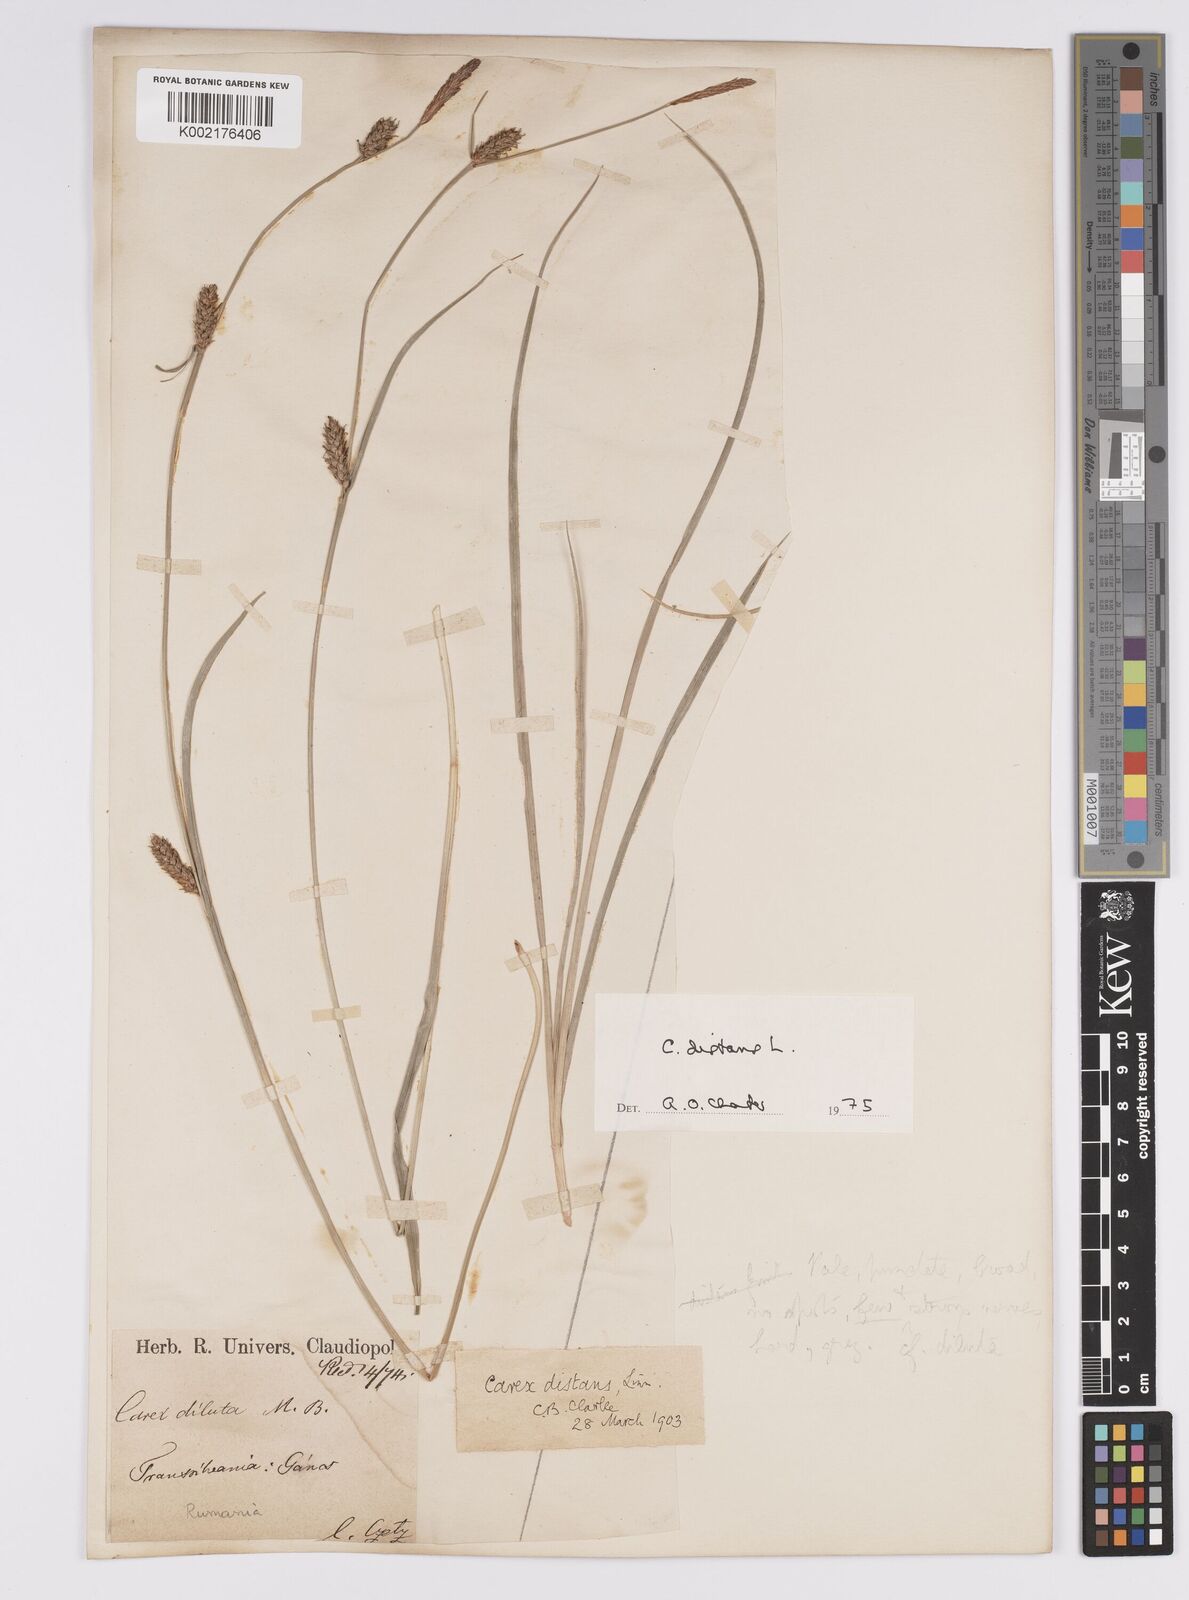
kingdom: Plantae
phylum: Tracheophyta
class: Liliopsida
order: Poales
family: Cyperaceae
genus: Carex
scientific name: Carex distans
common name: Distant sedge
